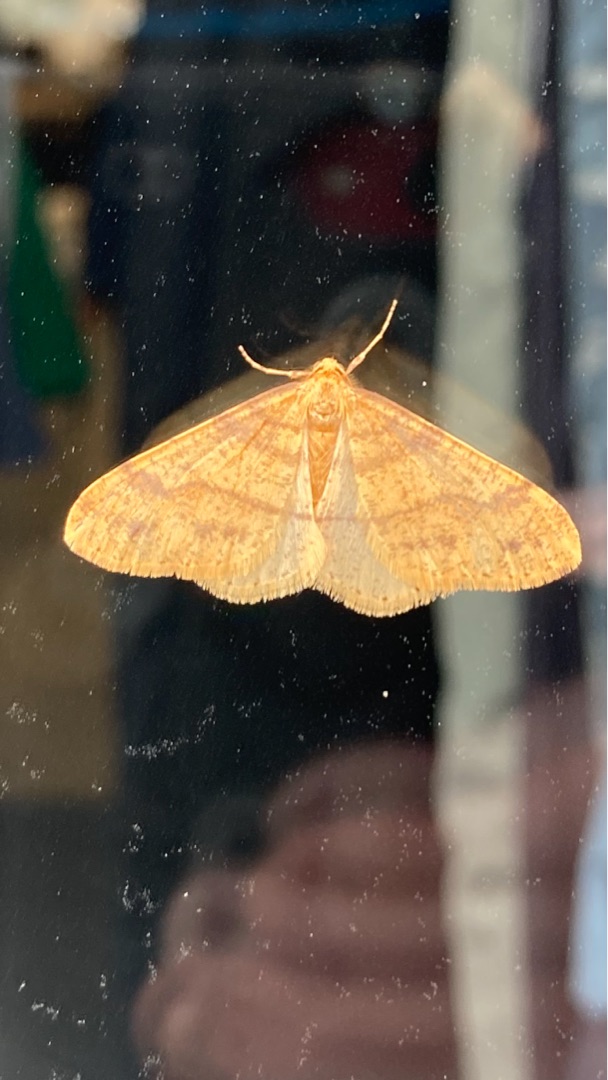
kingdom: Animalia
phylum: Arthropoda
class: Insecta
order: Lepidoptera
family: Geometridae
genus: Agriopis
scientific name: Agriopis aurantiaria
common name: Guldgul frostmåler
